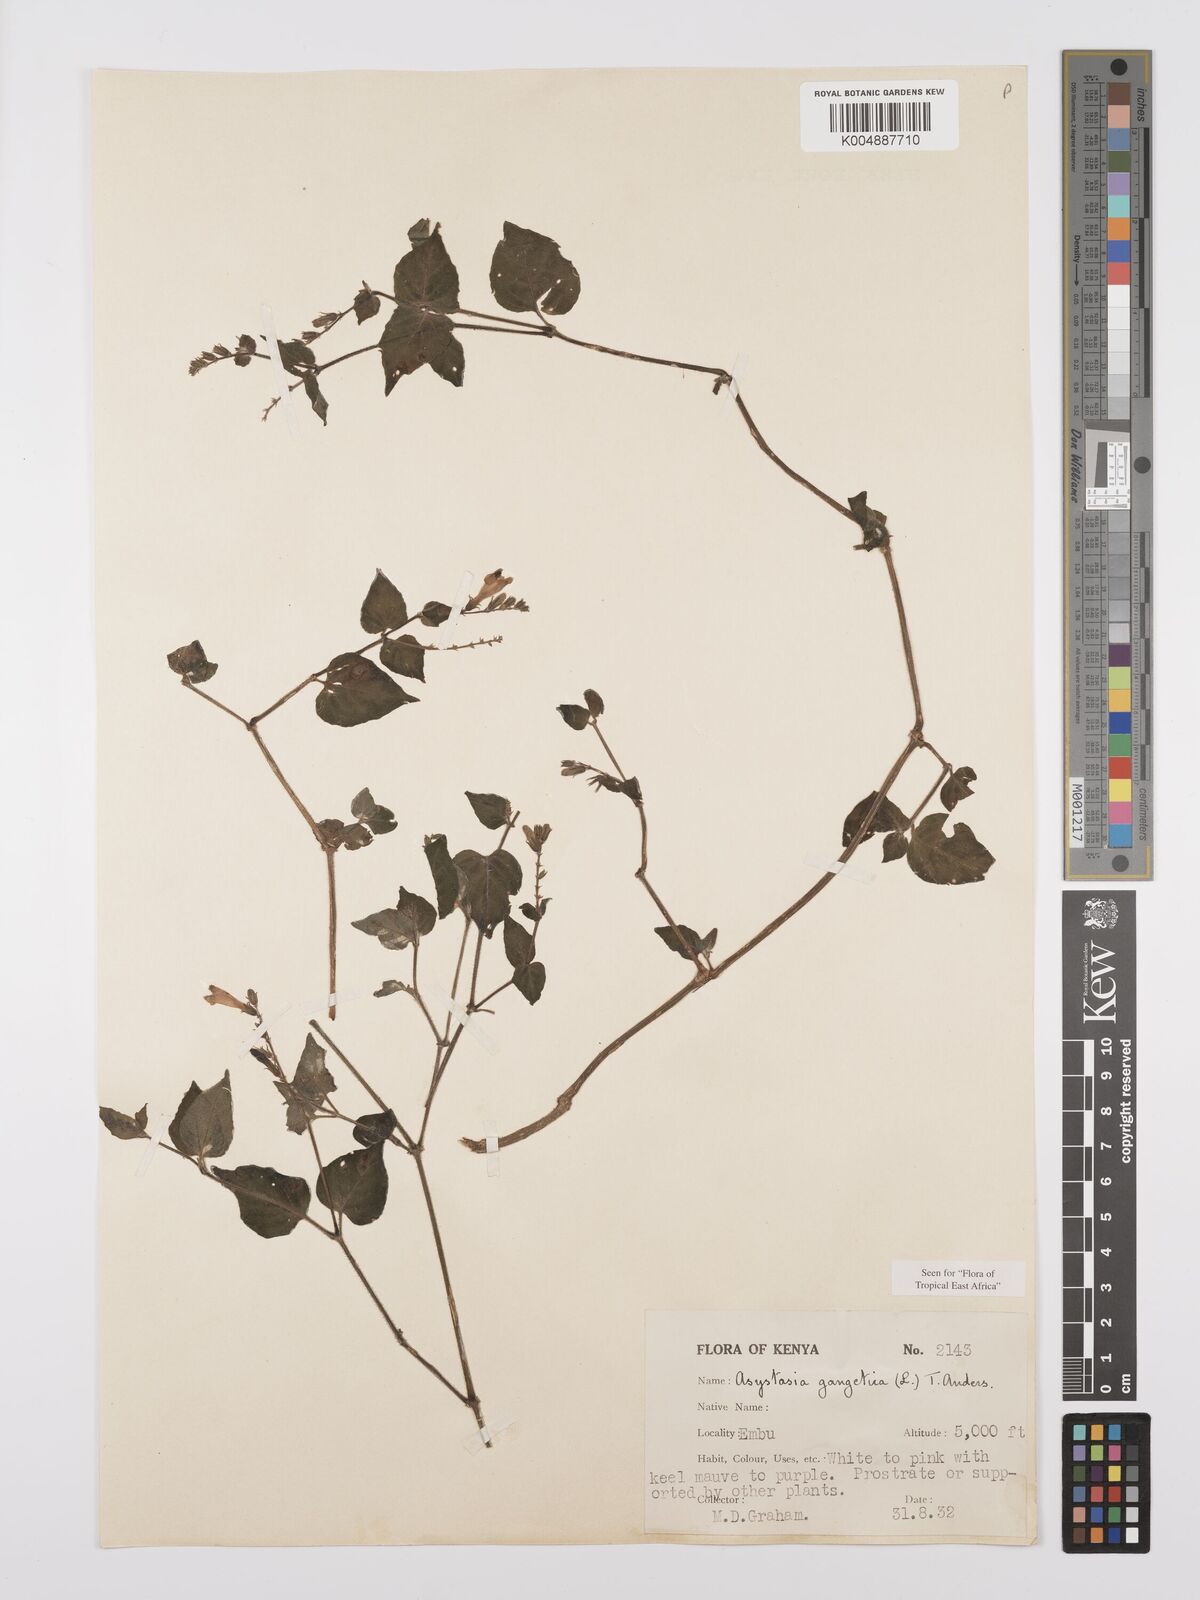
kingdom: Plantae
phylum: Tracheophyta
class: Magnoliopsida
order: Lamiales
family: Acanthaceae
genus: Asystasia
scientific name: Asystasia gangetica
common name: Chinese violet
